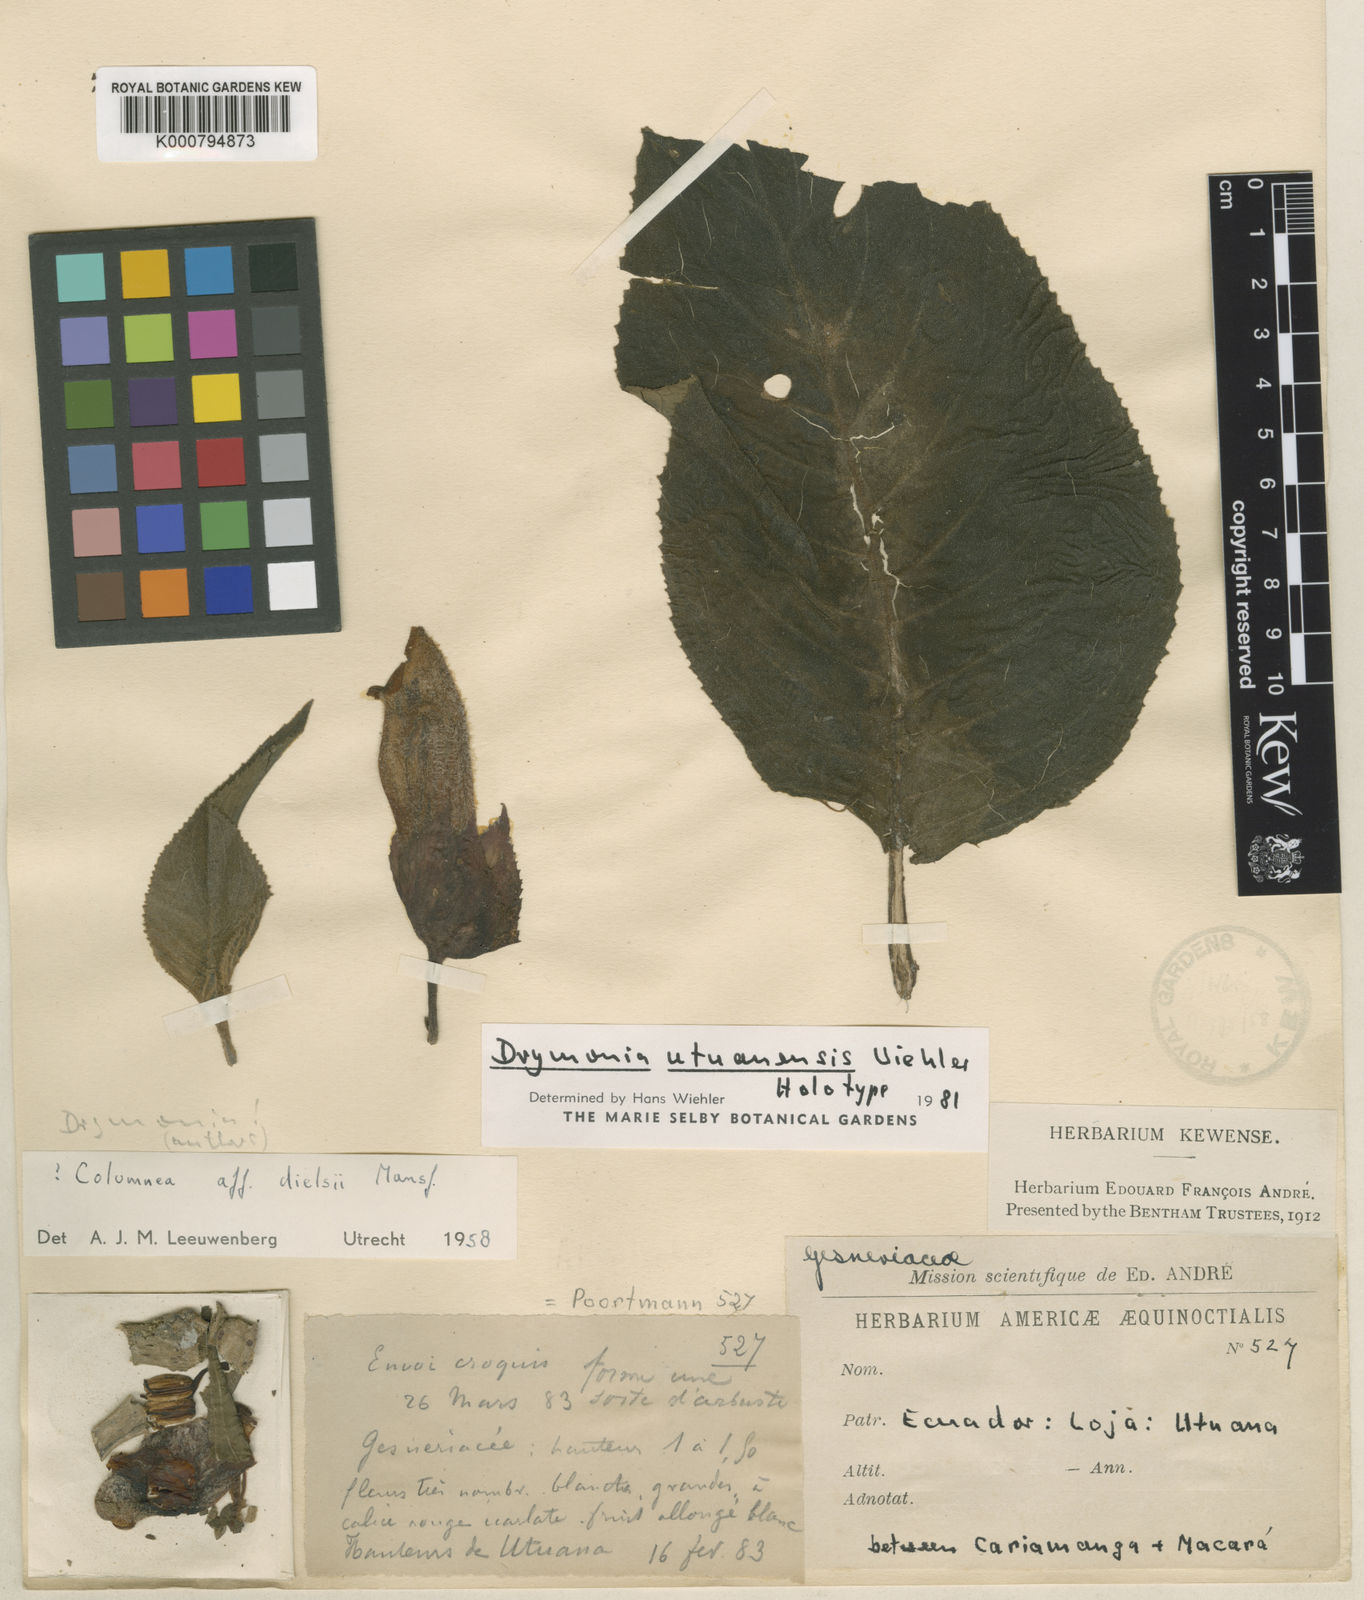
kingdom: Plantae
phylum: Tracheophyta
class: Magnoliopsida
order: Lamiales
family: Gesneriaceae
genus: Drymonia
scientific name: Drymonia utuanensis
